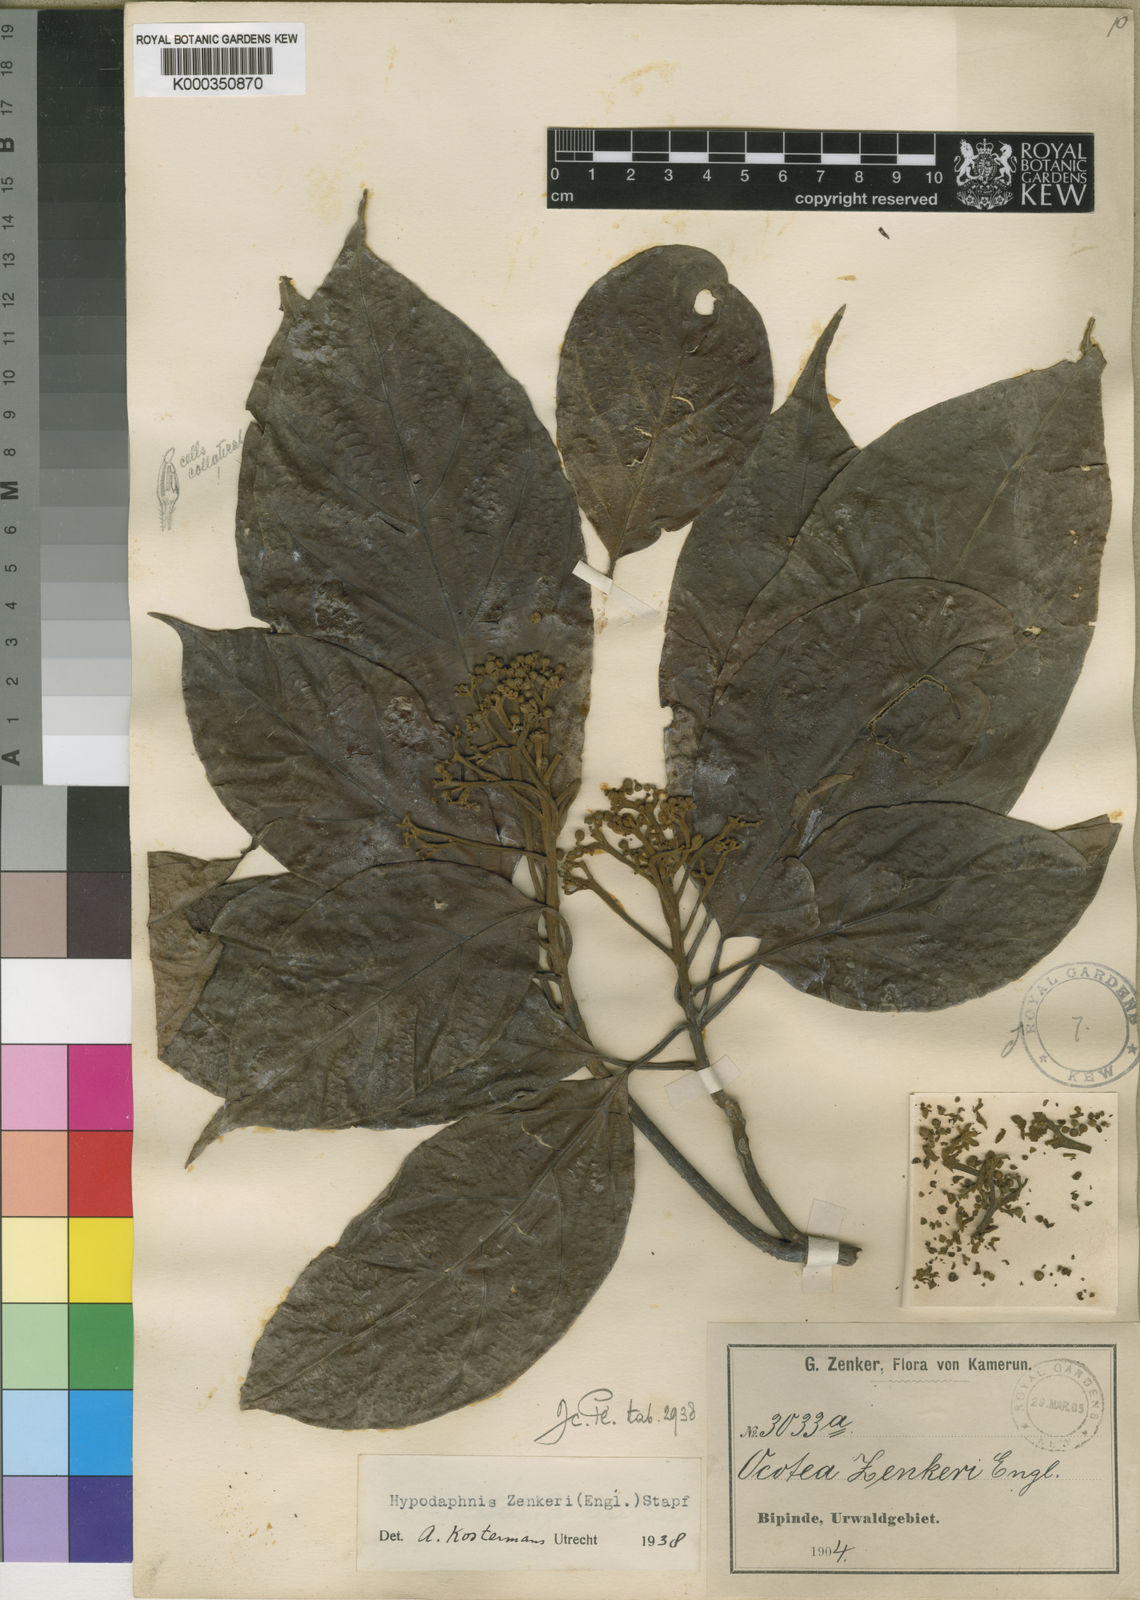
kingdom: Plantae
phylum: Tracheophyta
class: Magnoliopsida
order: Laurales
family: Lauraceae
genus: Hypodaphnis
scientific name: Hypodaphnis zenkeri
